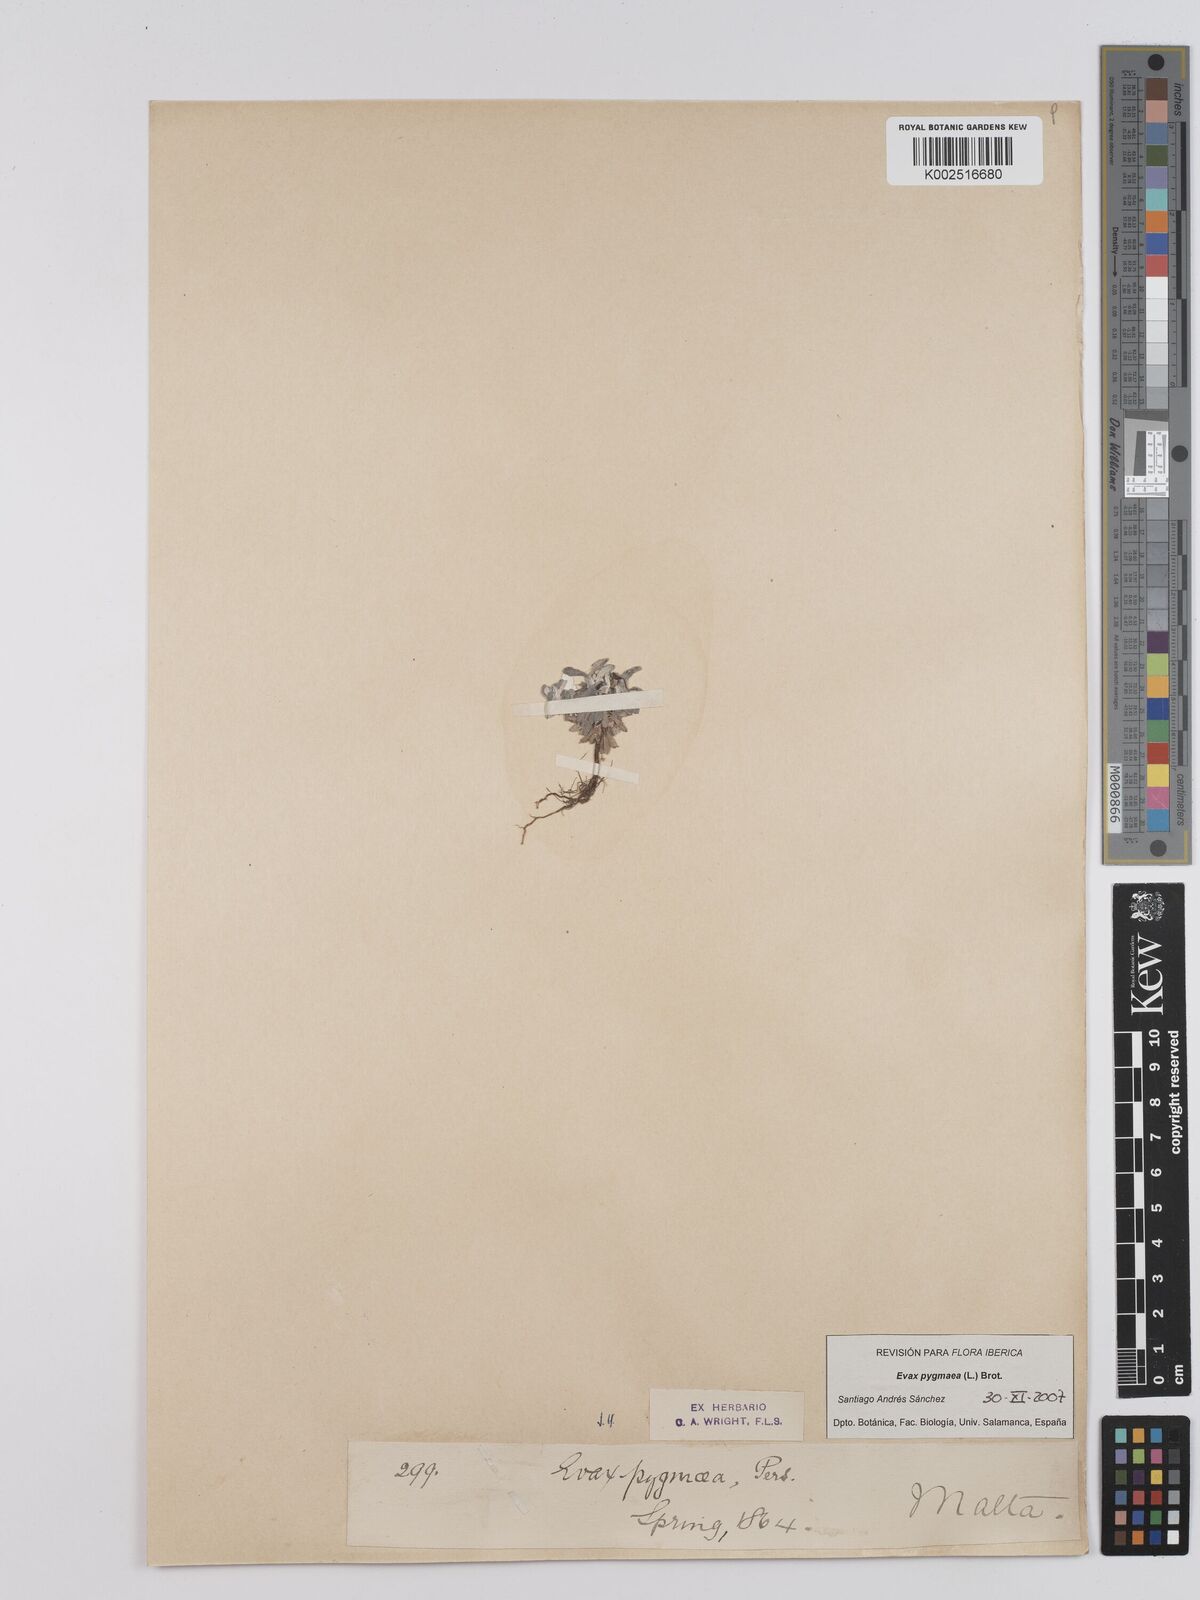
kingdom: Plantae
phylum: Tracheophyta
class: Magnoliopsida
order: Asterales
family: Asteraceae
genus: Filago
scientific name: Filago
